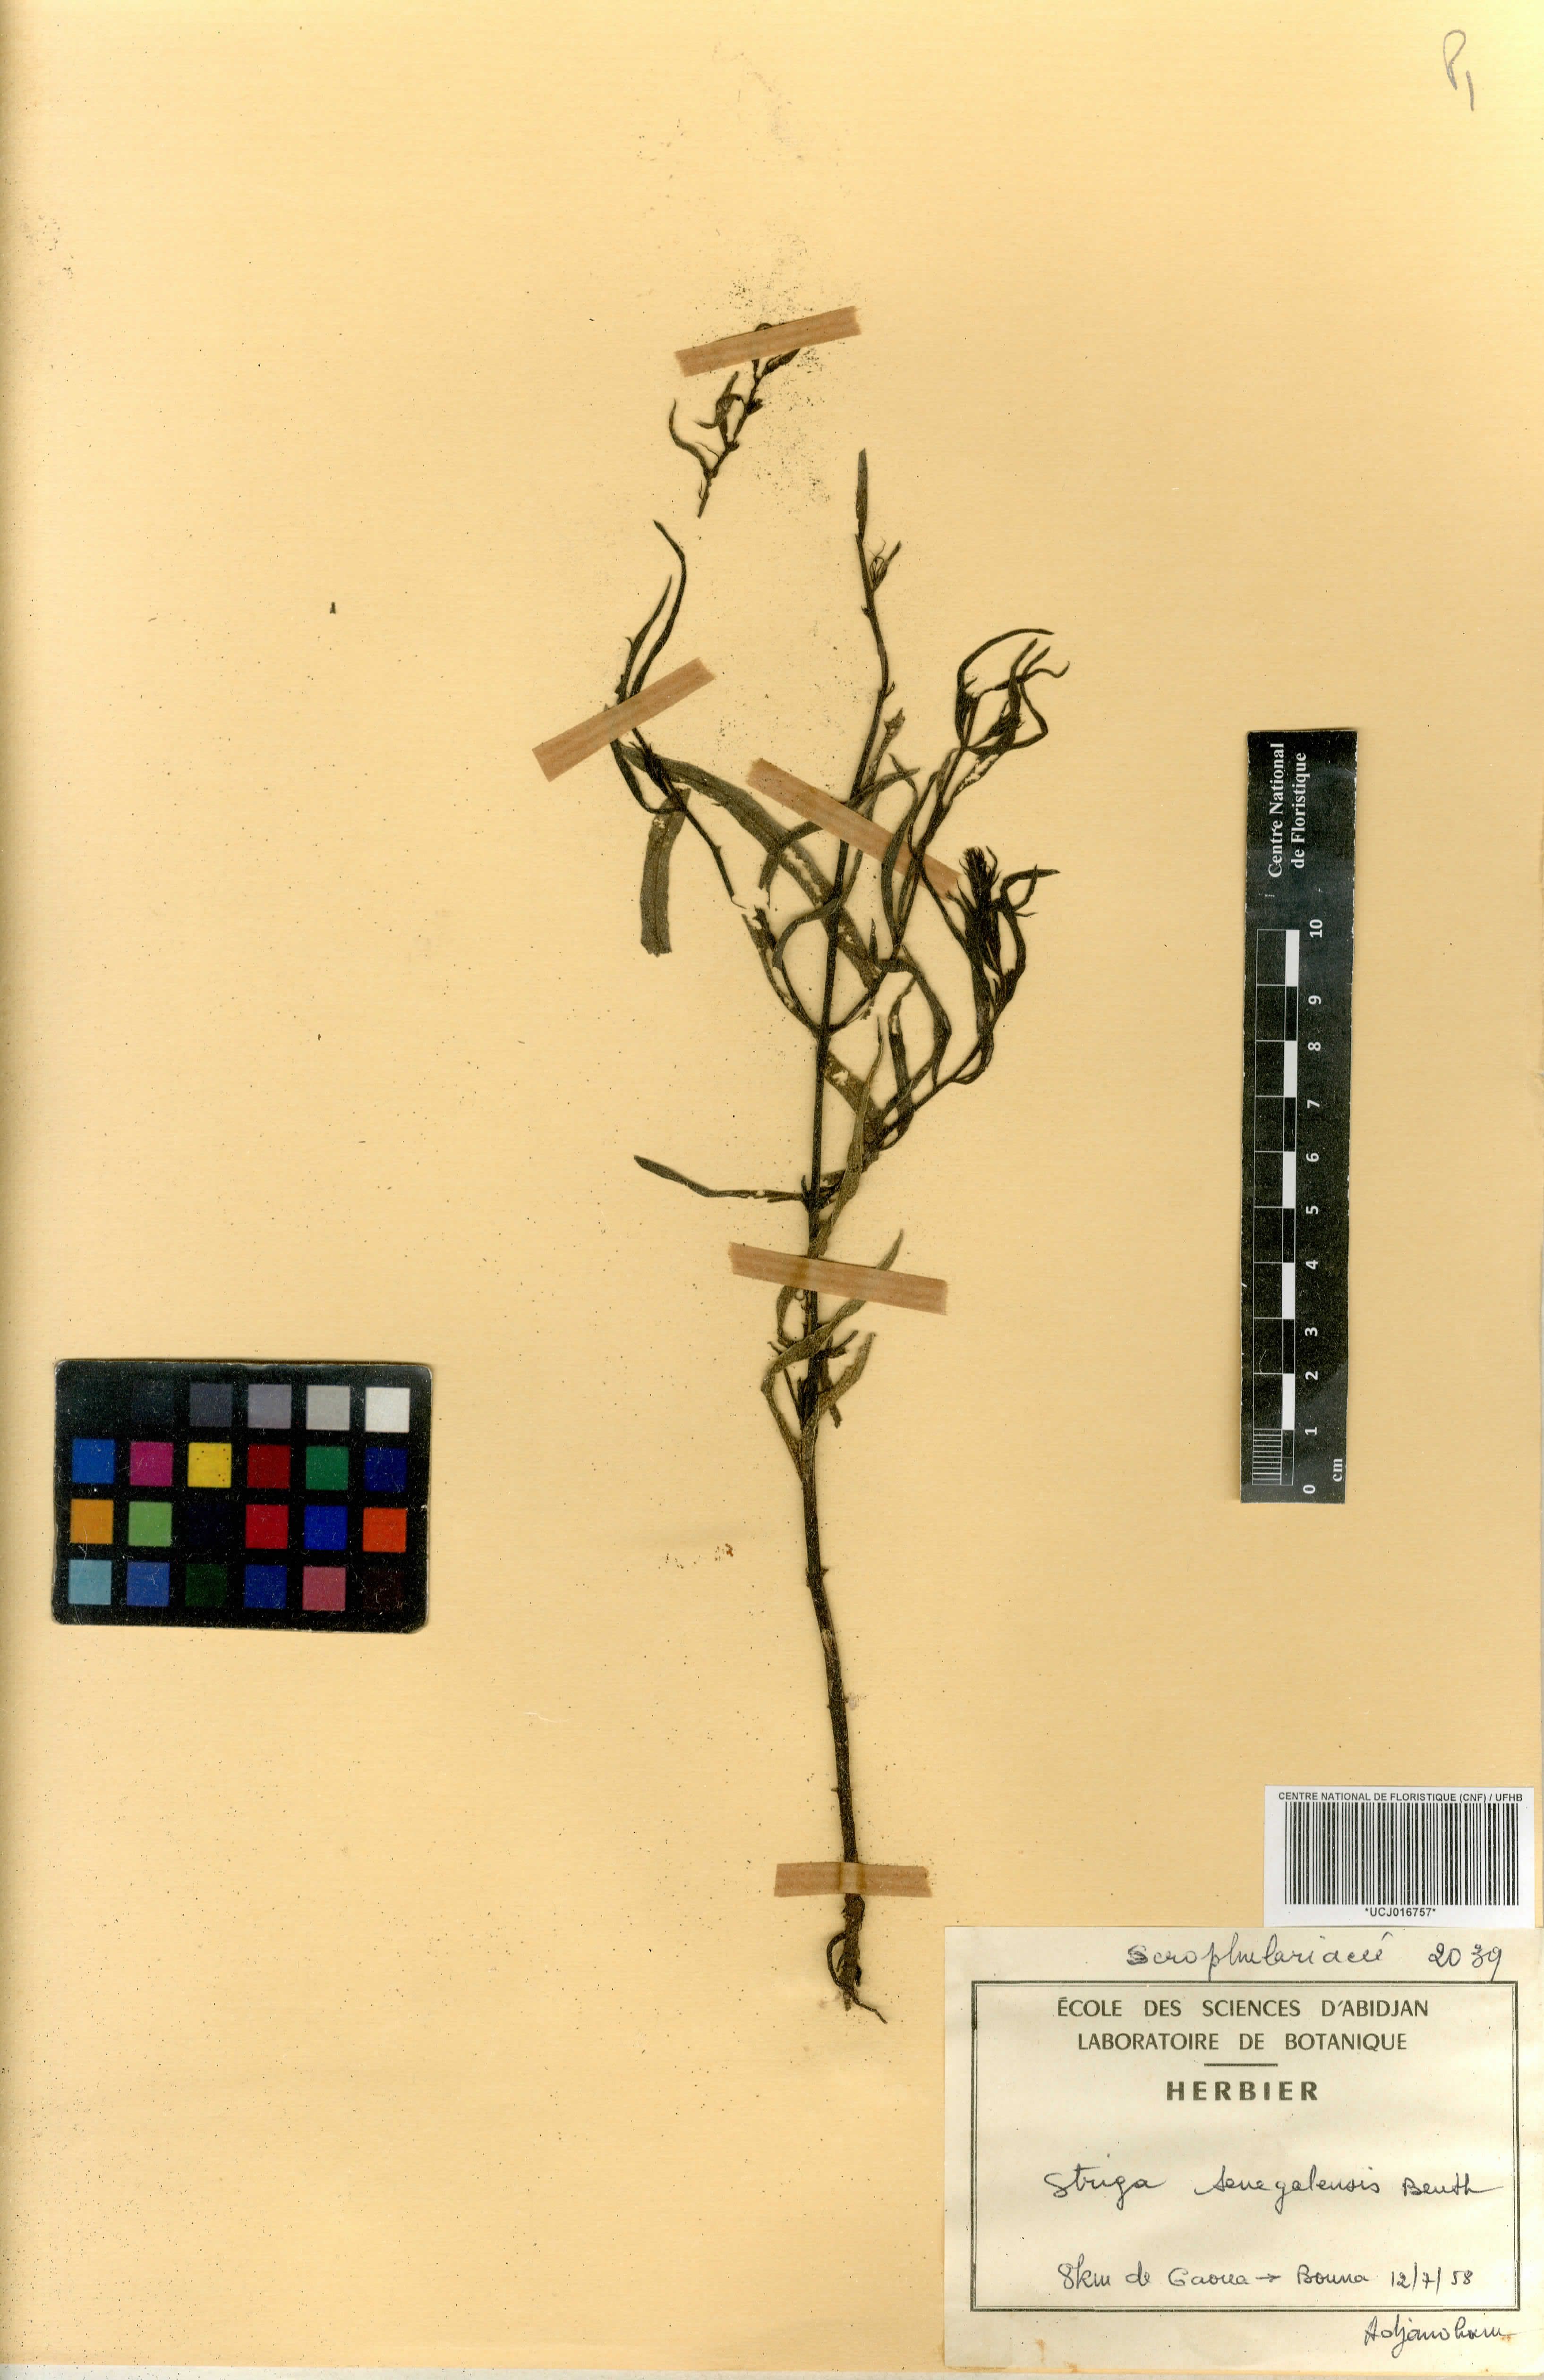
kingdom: Plantae
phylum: Tracheophyta
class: Magnoliopsida
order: Lamiales
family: Orobanchaceae
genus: Striga
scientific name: Striga hermonthica
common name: Purple witchweed
